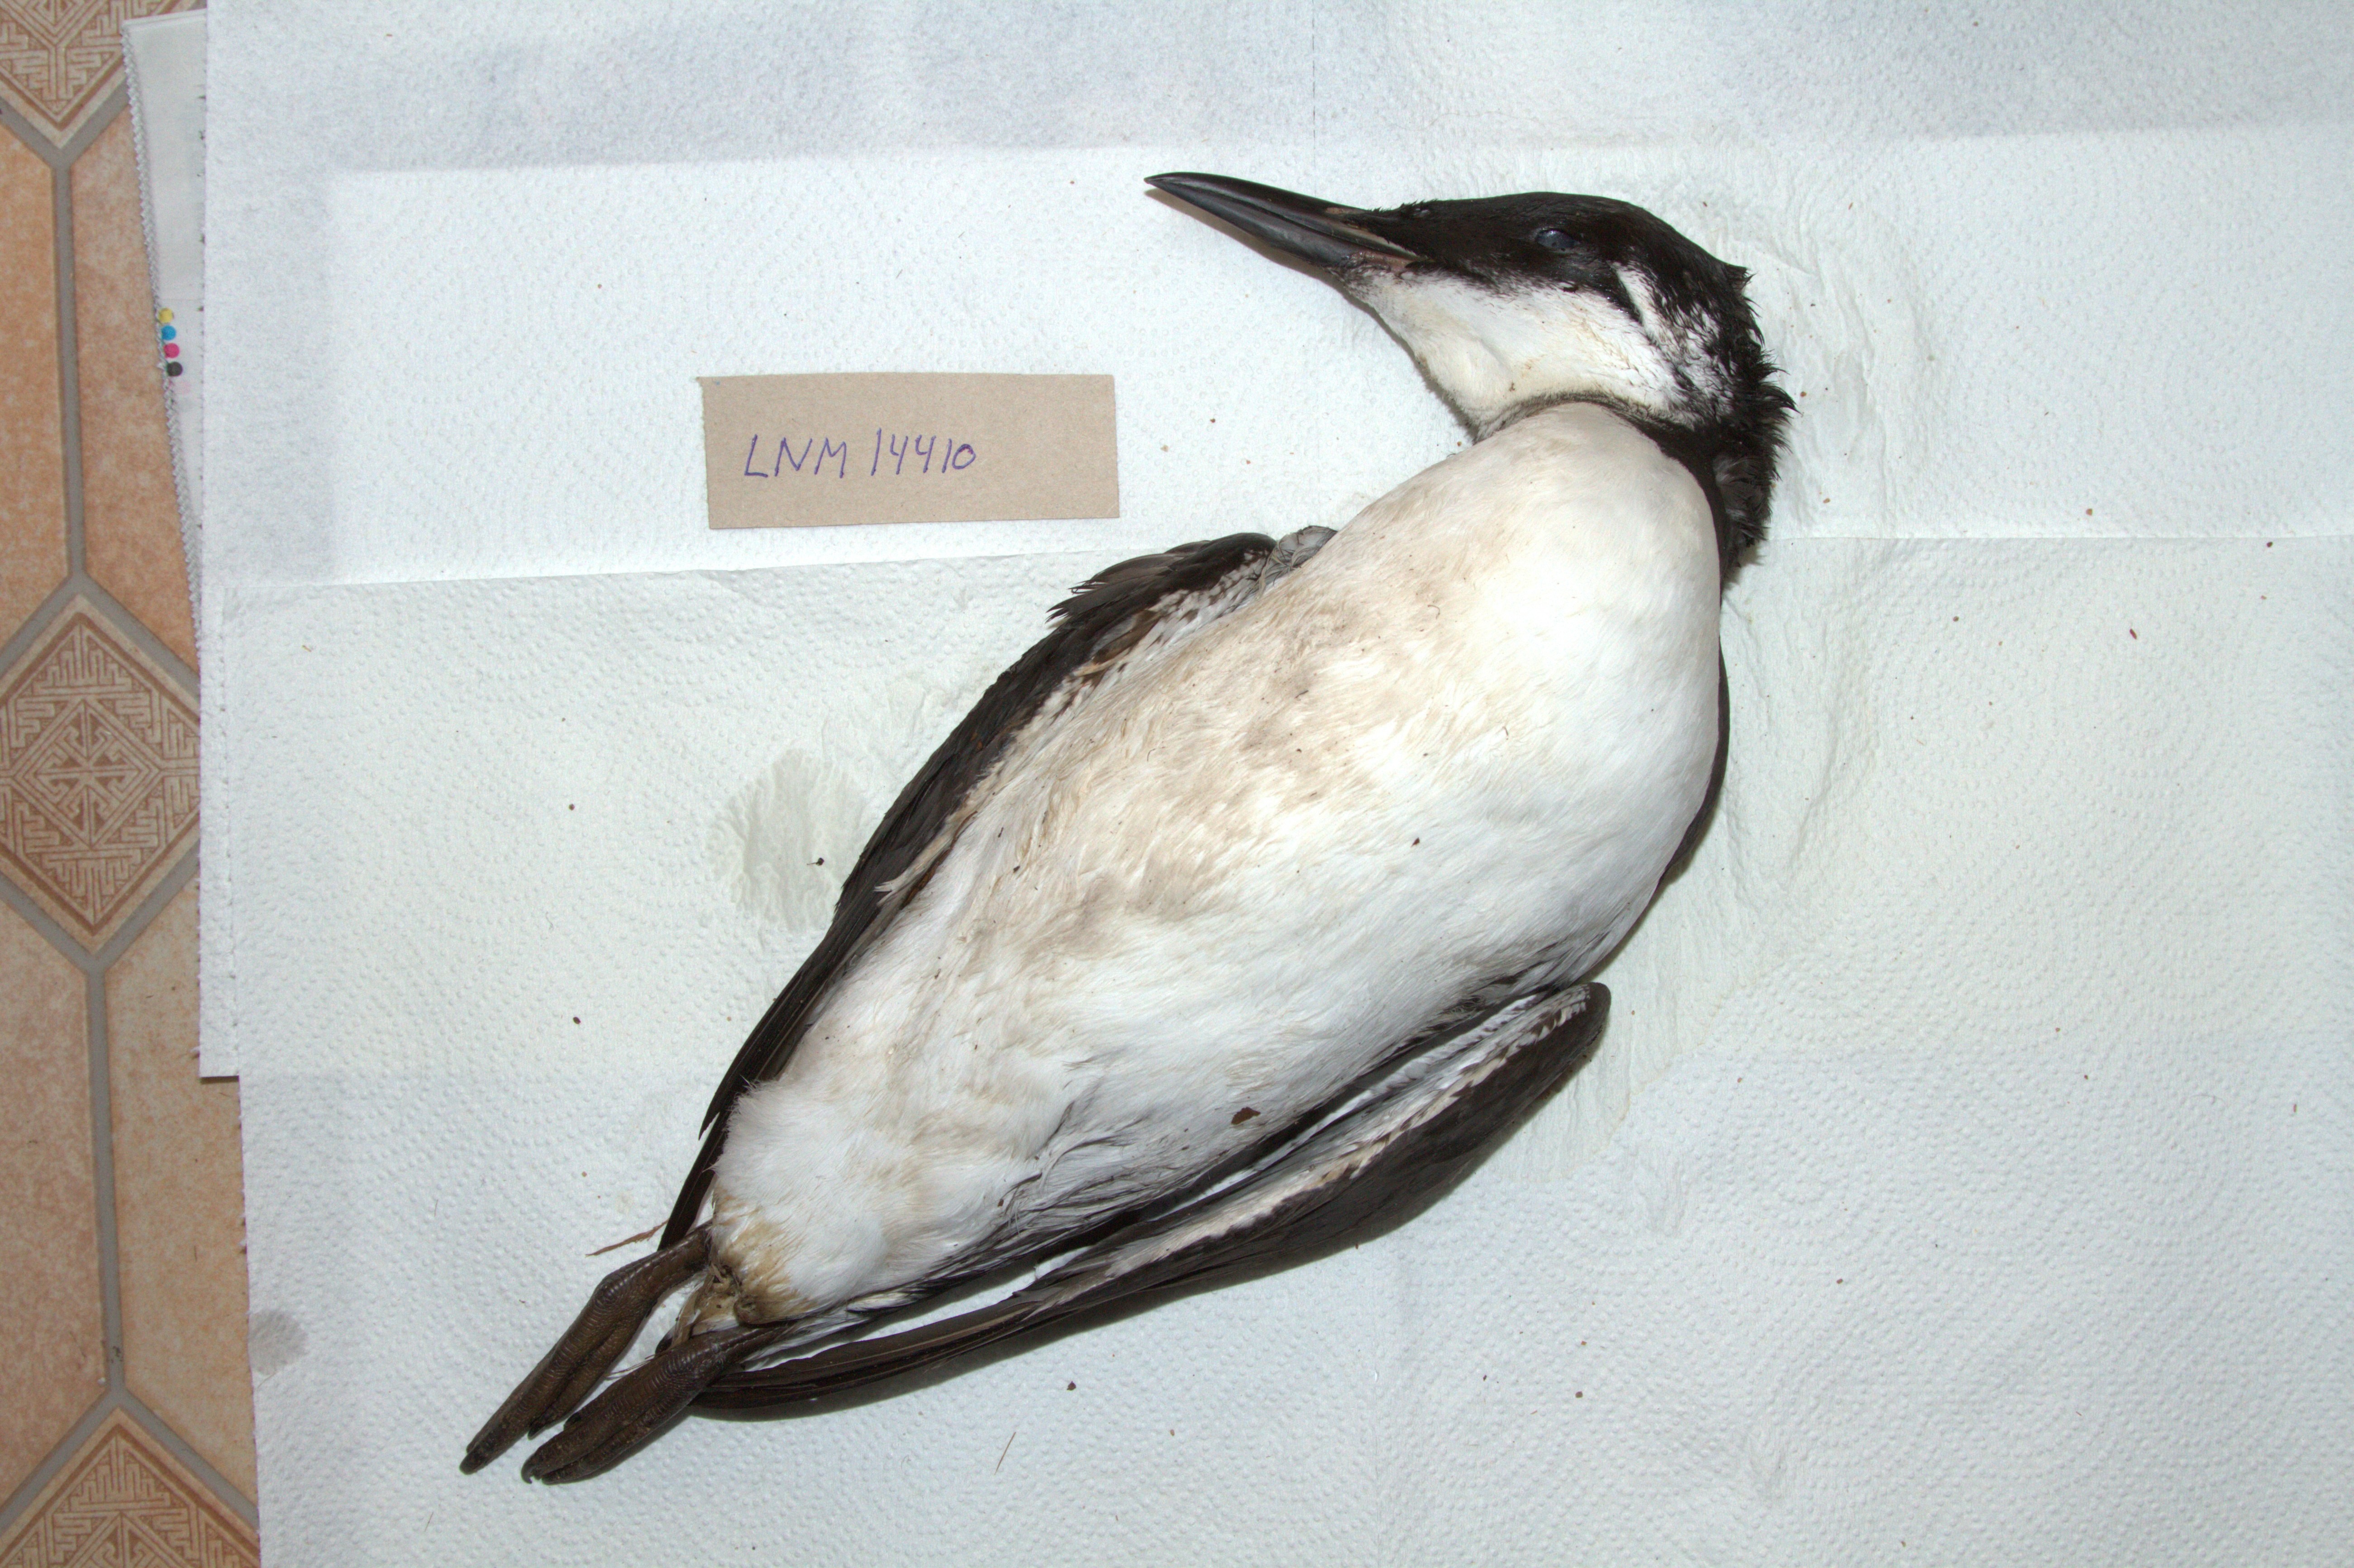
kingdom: Animalia
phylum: Chordata
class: Aves
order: Charadriiformes
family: Alcidae
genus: Uria
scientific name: Uria aalge
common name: Common murre
